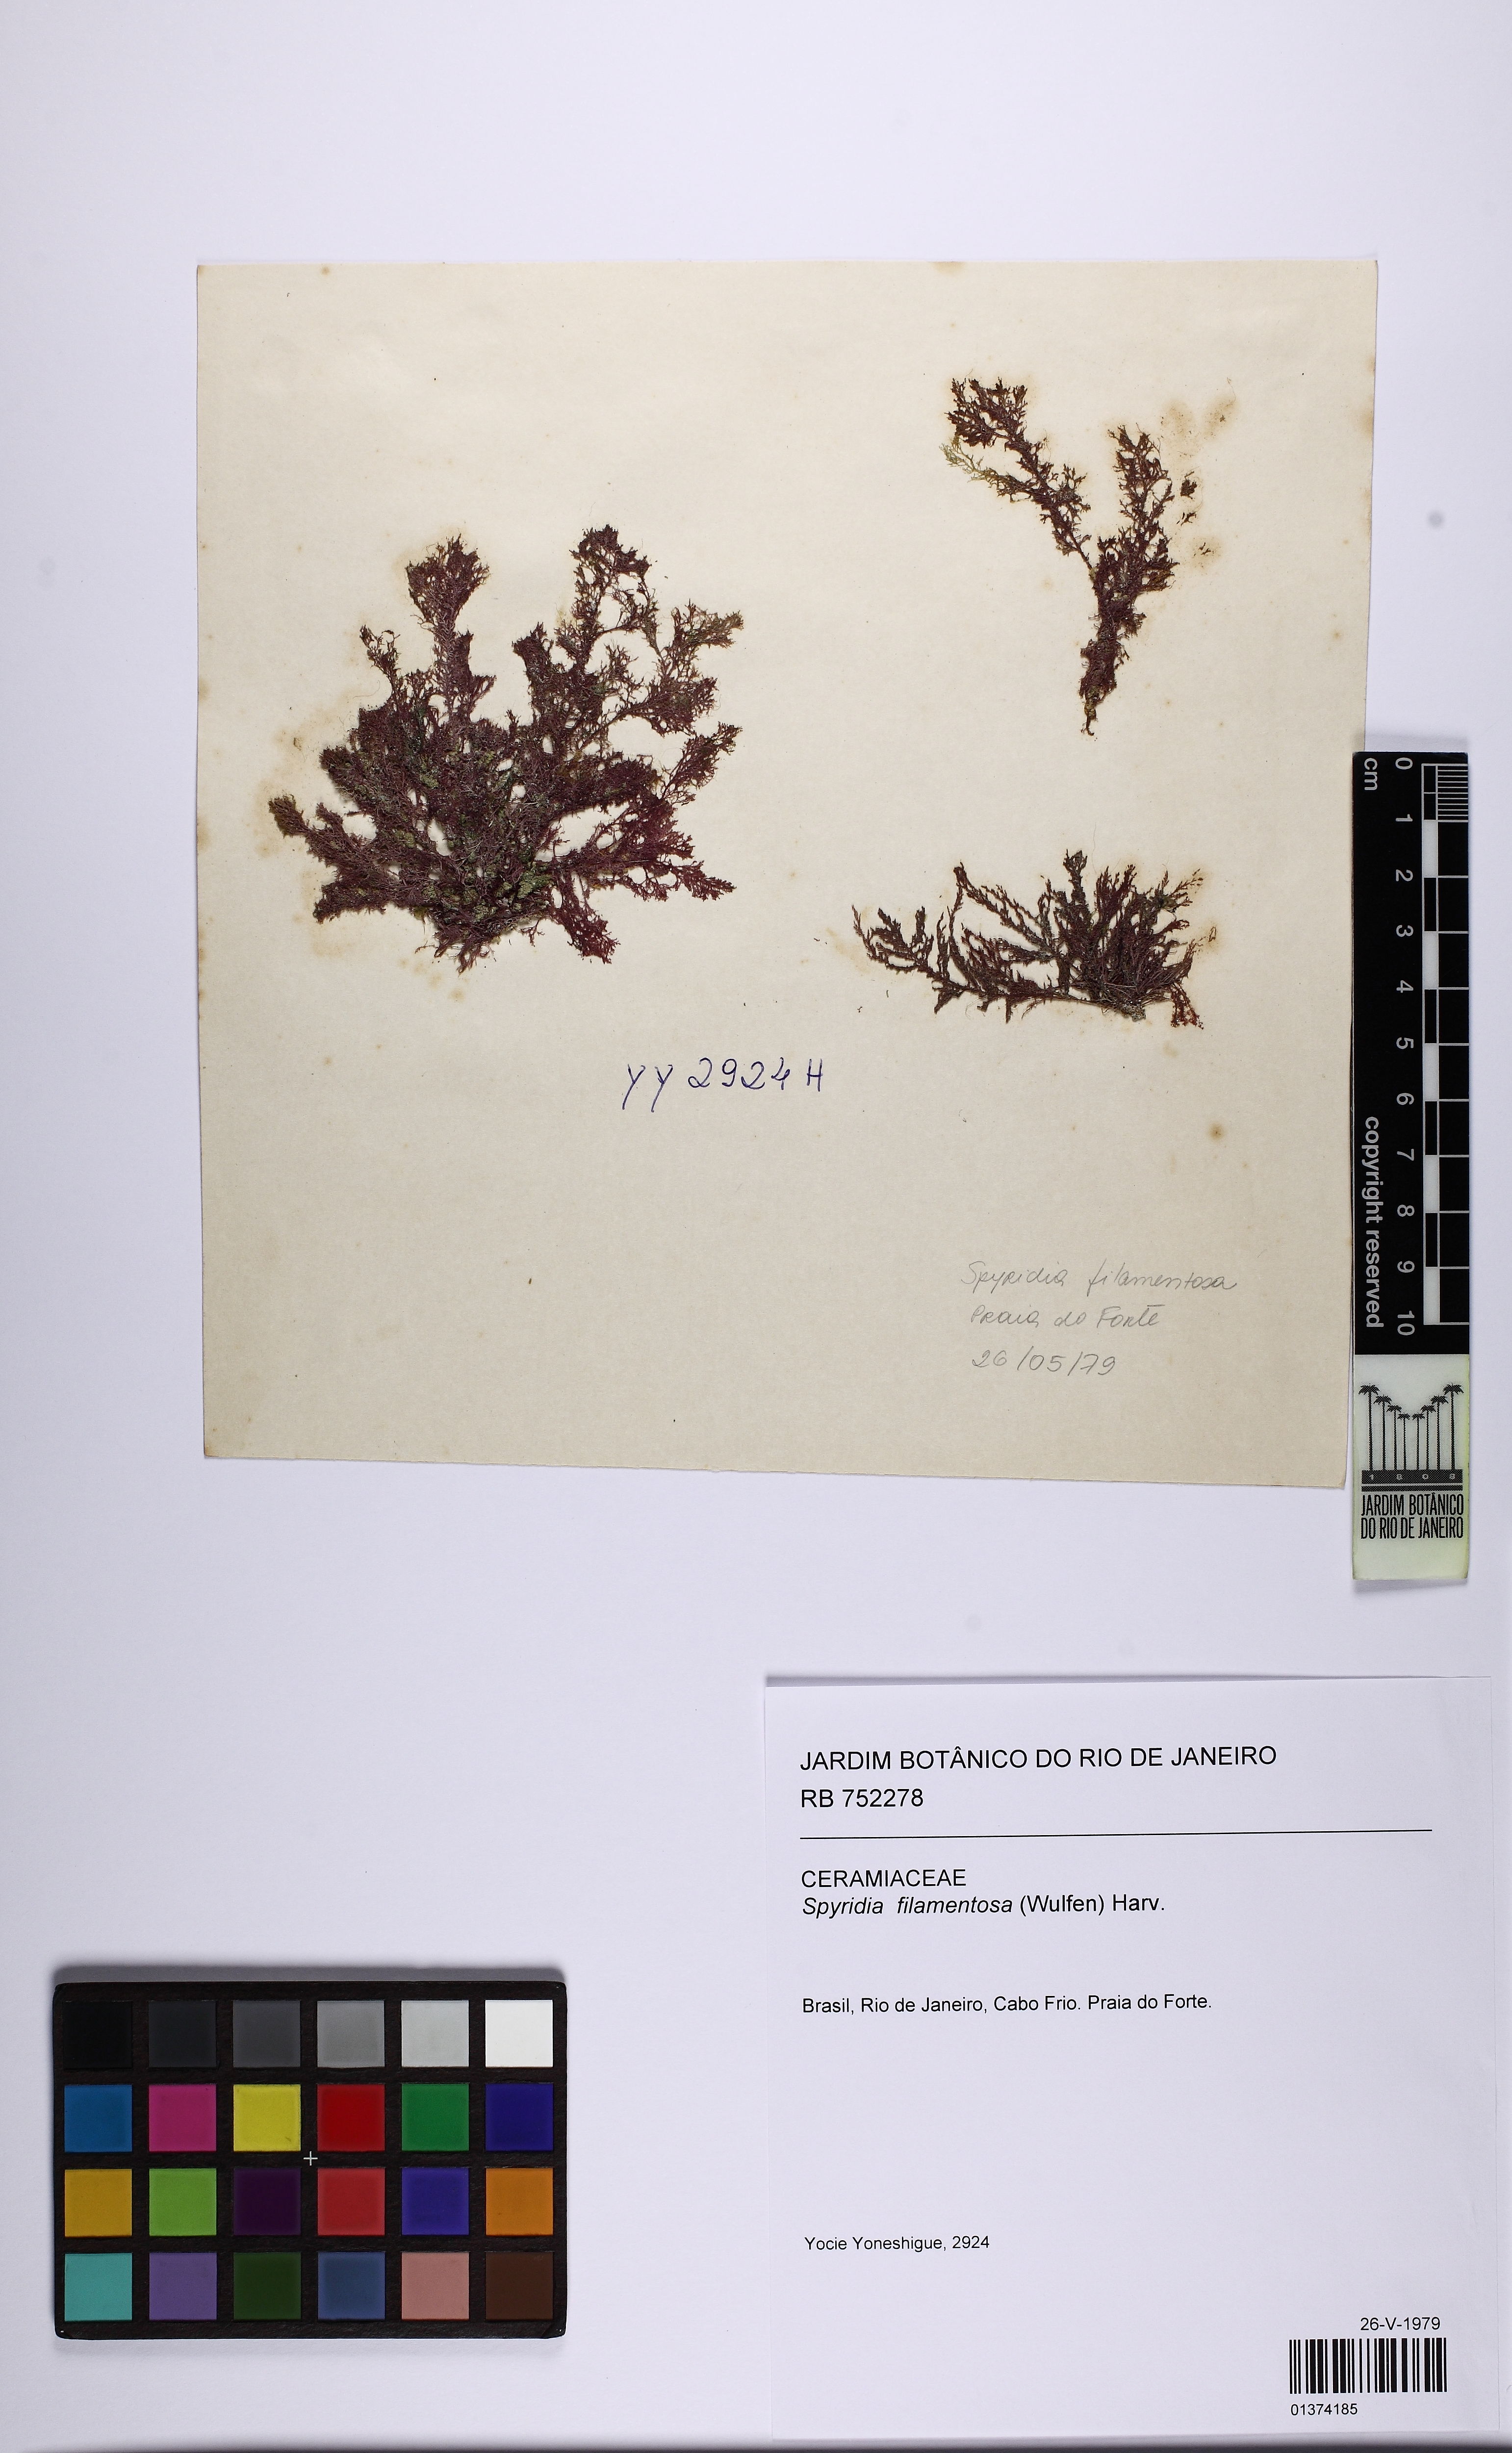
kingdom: Plantae
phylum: Rhodophyta
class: Florideophyceae
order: Ceramiales
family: Spyridiaceae
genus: Spyridia
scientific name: Spyridia filamentosa
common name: Red algae
